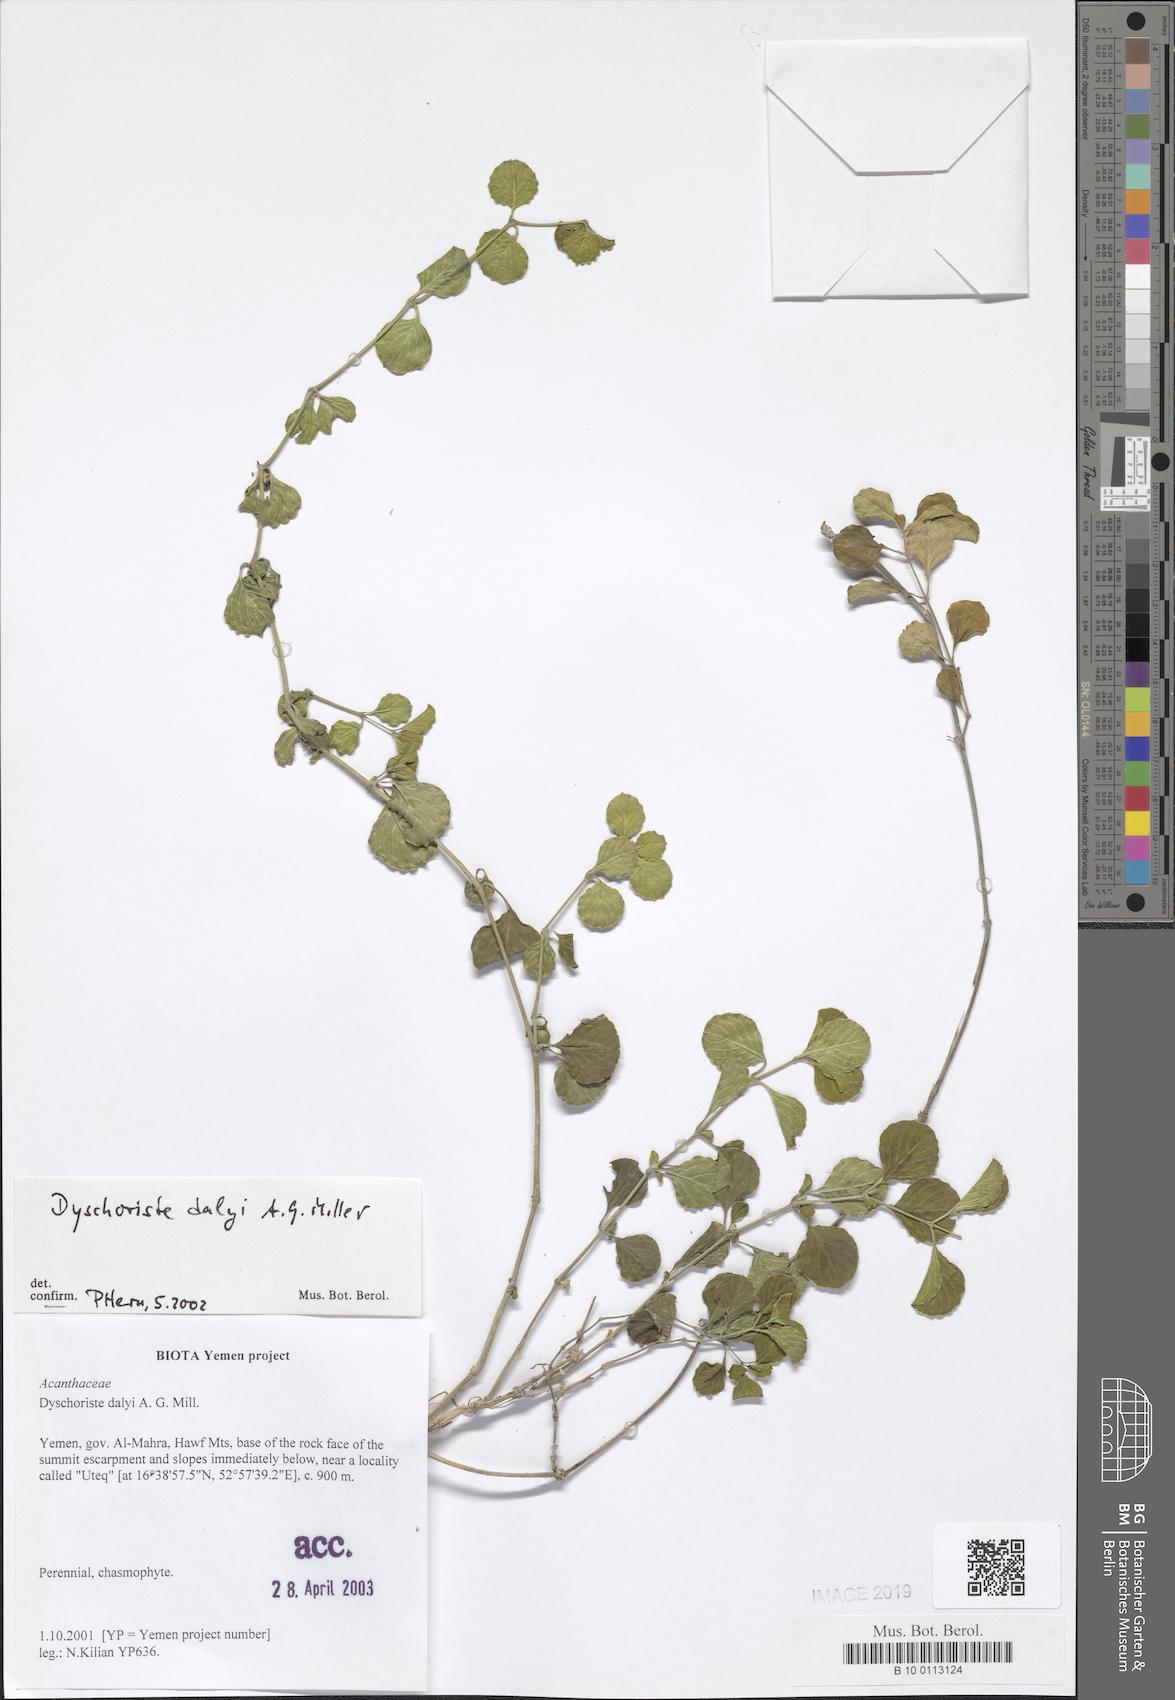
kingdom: Plantae
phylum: Tracheophyta
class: Magnoliopsida
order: Lamiales
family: Acanthaceae
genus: Dyschoriste
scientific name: Dyschoriste dalyi
